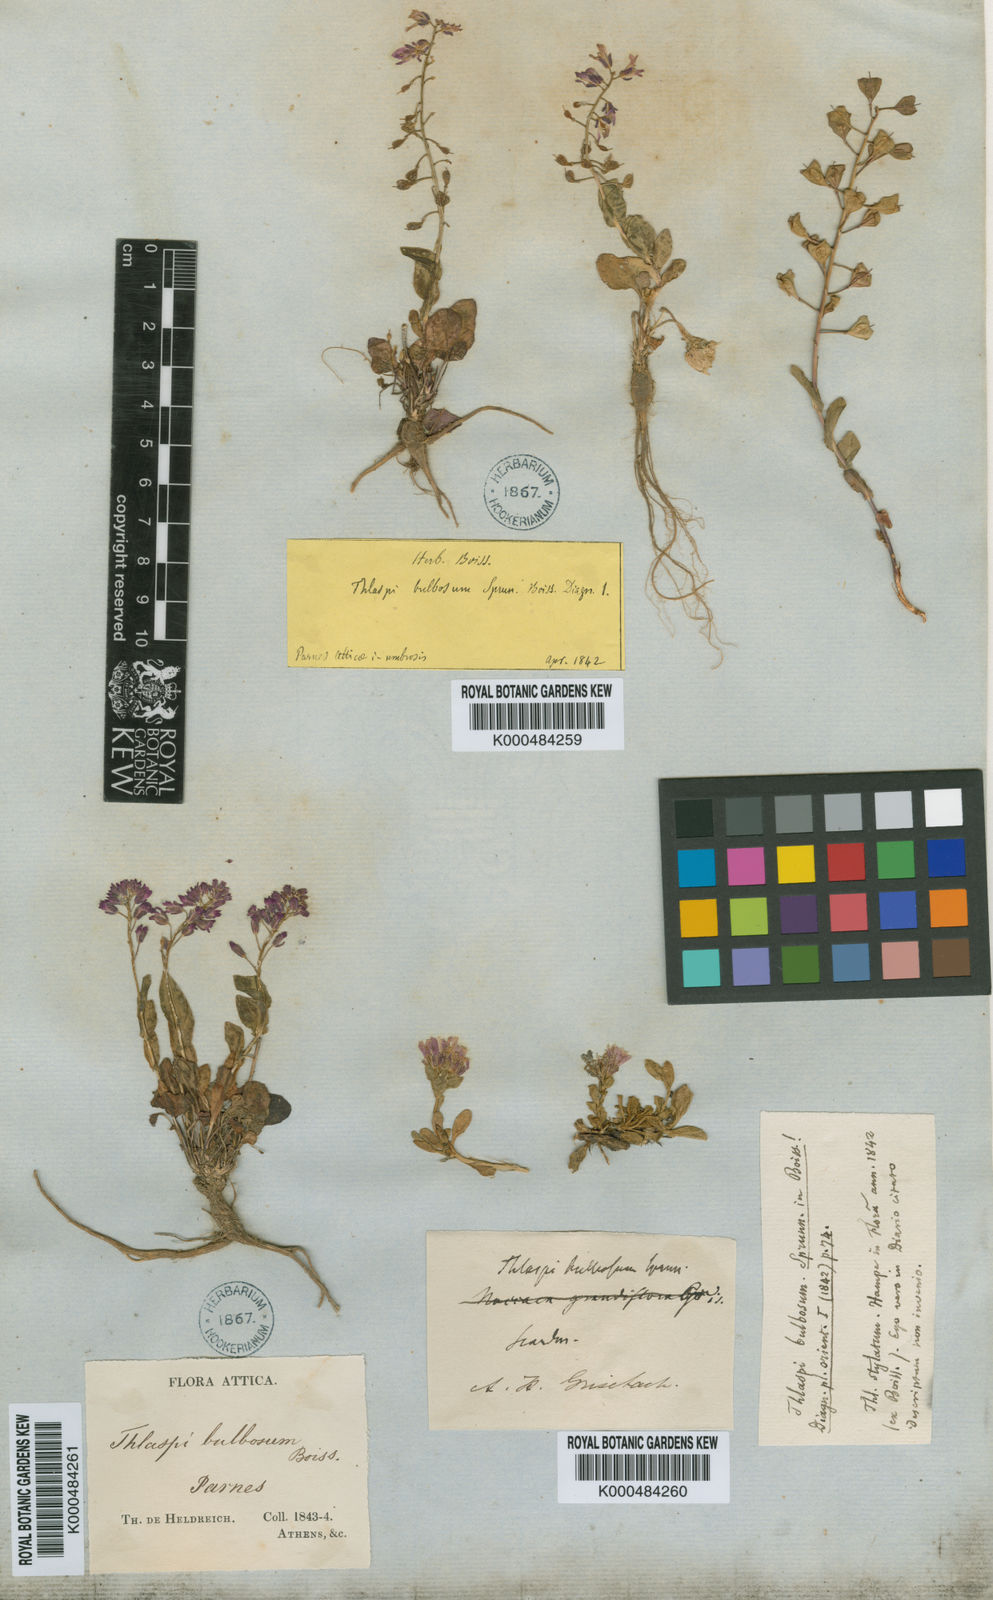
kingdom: Plantae
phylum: Tracheophyta
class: Magnoliopsida
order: Brassicales
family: Brassicaceae
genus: Thlaspi
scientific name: Thlaspi
